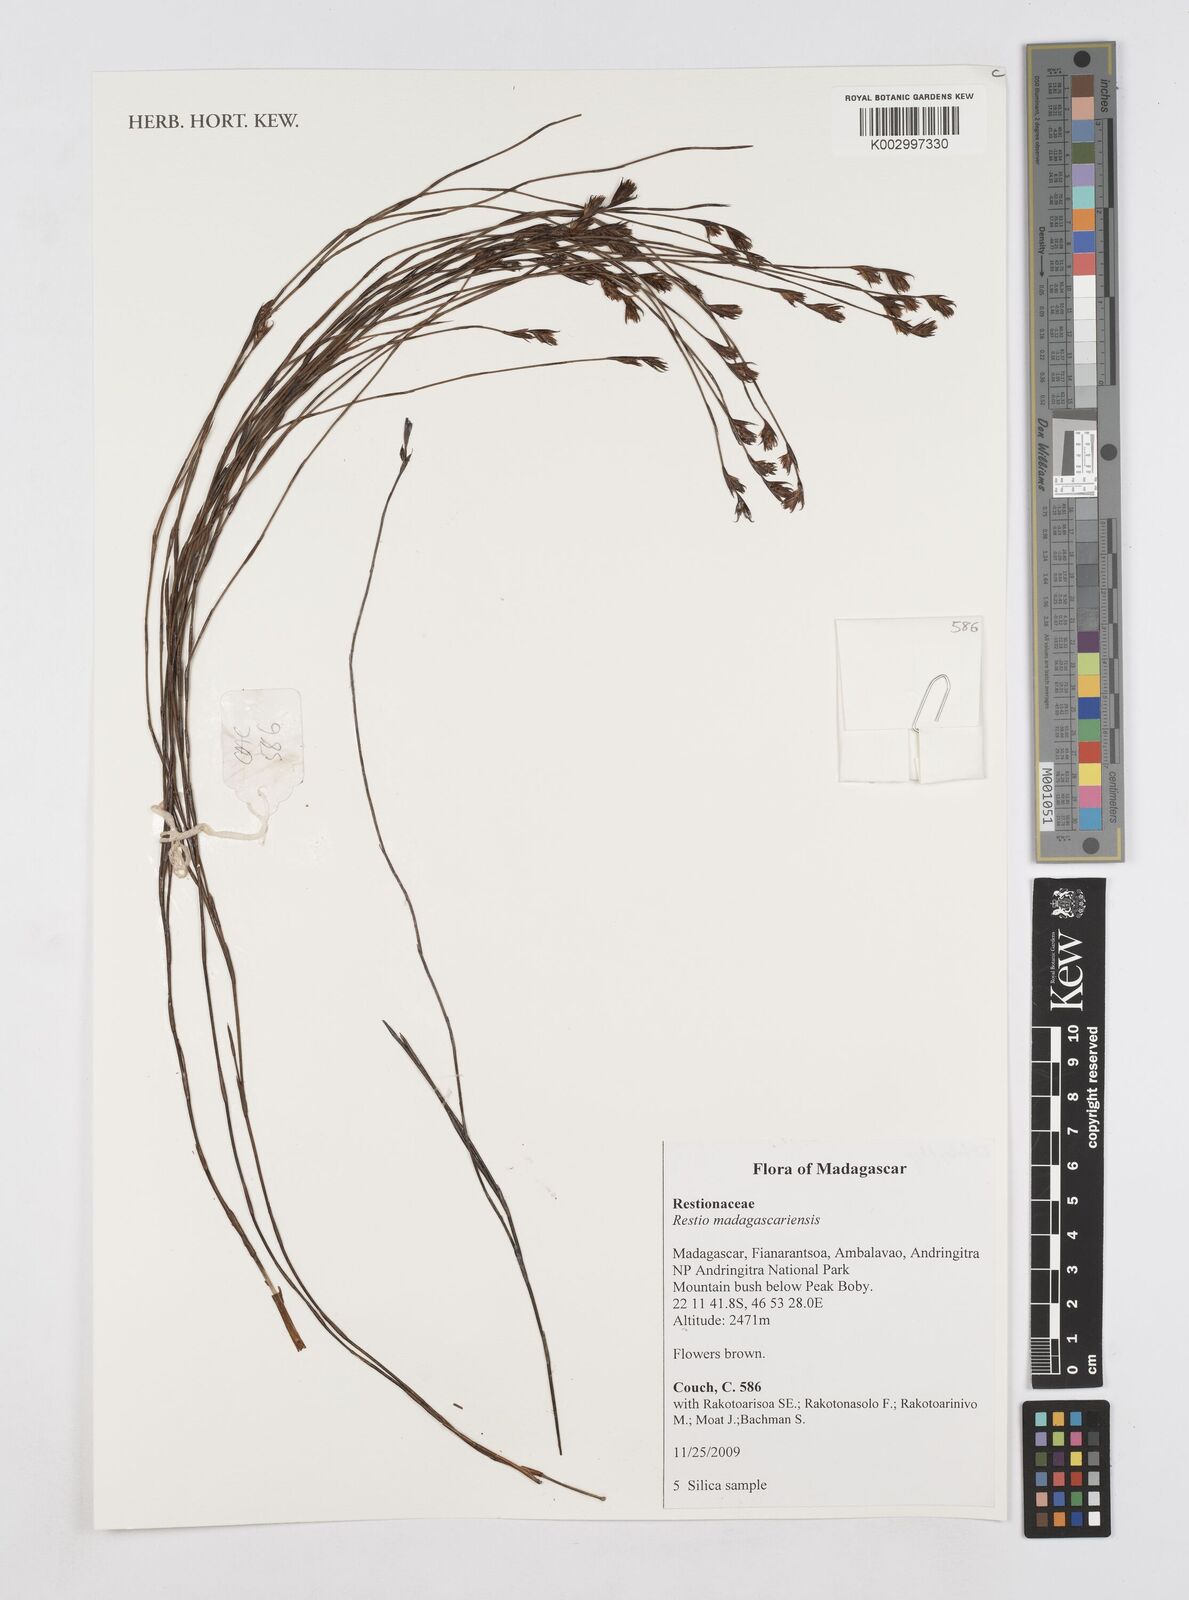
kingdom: Plantae
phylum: Tracheophyta
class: Liliopsida
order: Poales
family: Restionaceae
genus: Platycaulos
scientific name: Platycaulos
